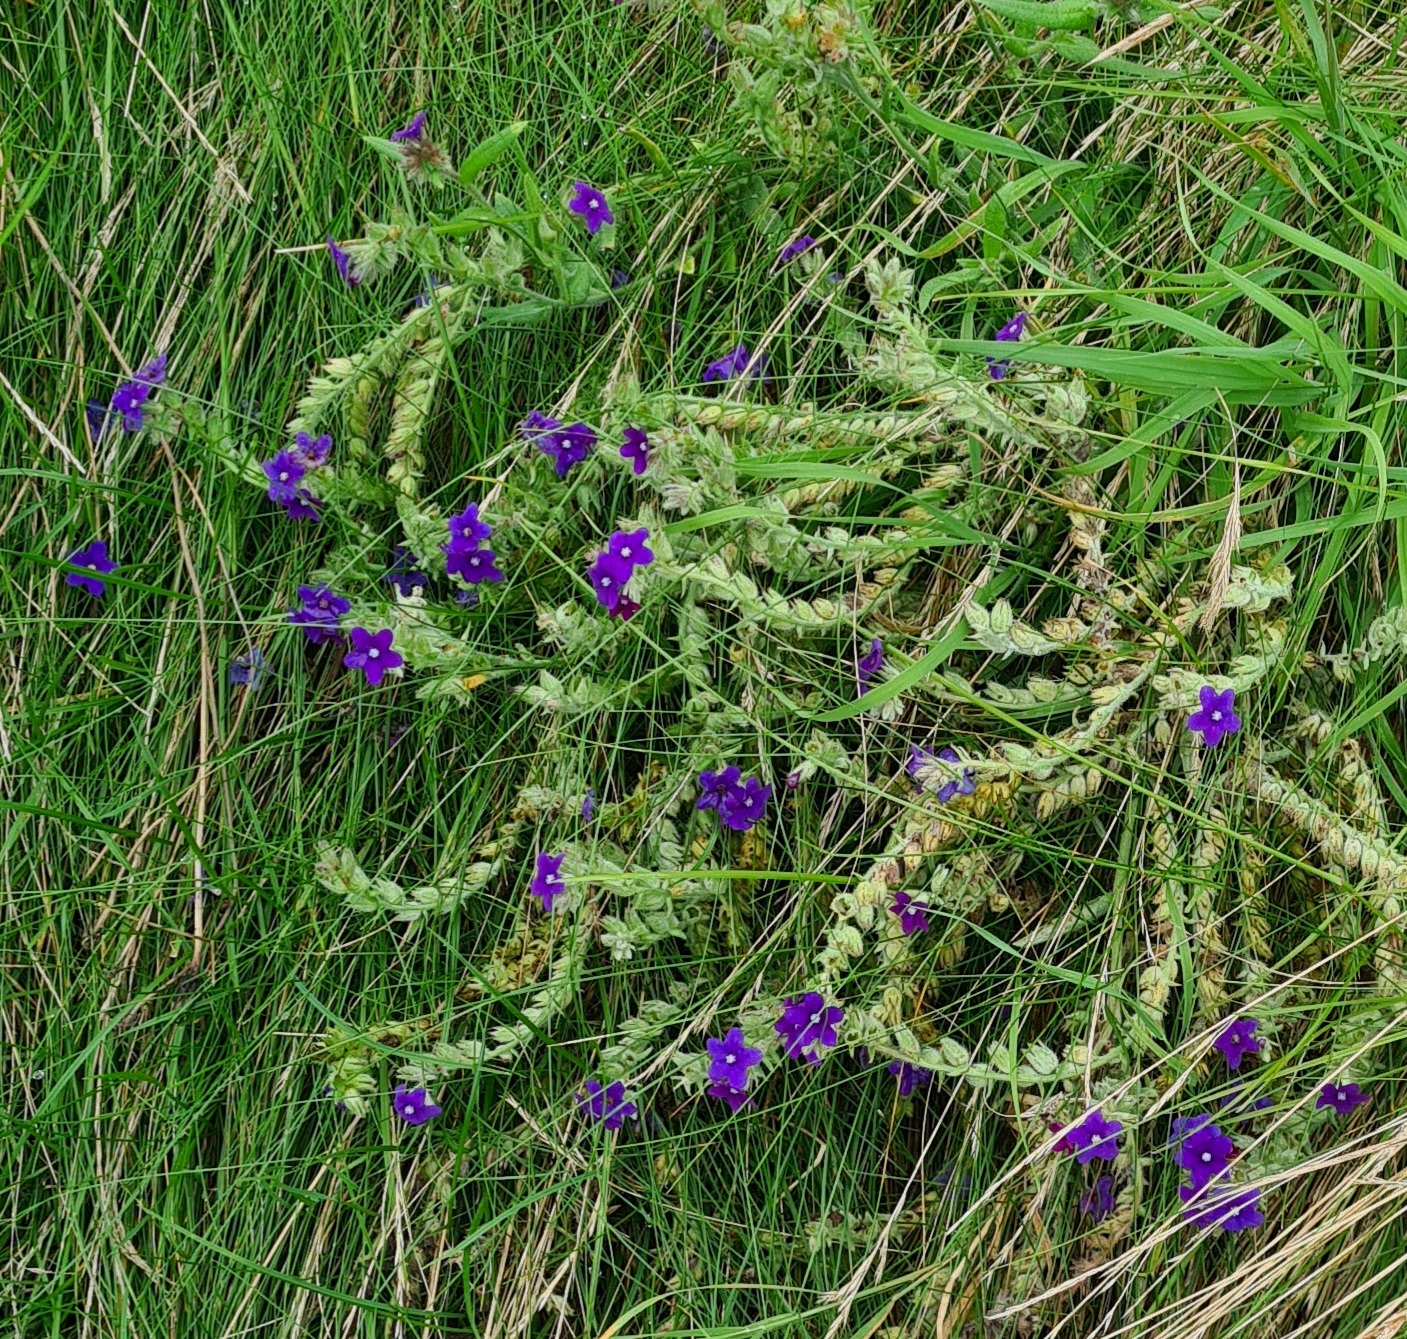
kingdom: Plantae
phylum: Tracheophyta
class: Magnoliopsida
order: Boraginales
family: Boraginaceae
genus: Anchusa
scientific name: Anchusa officinalis
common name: Læge-oksetunge
